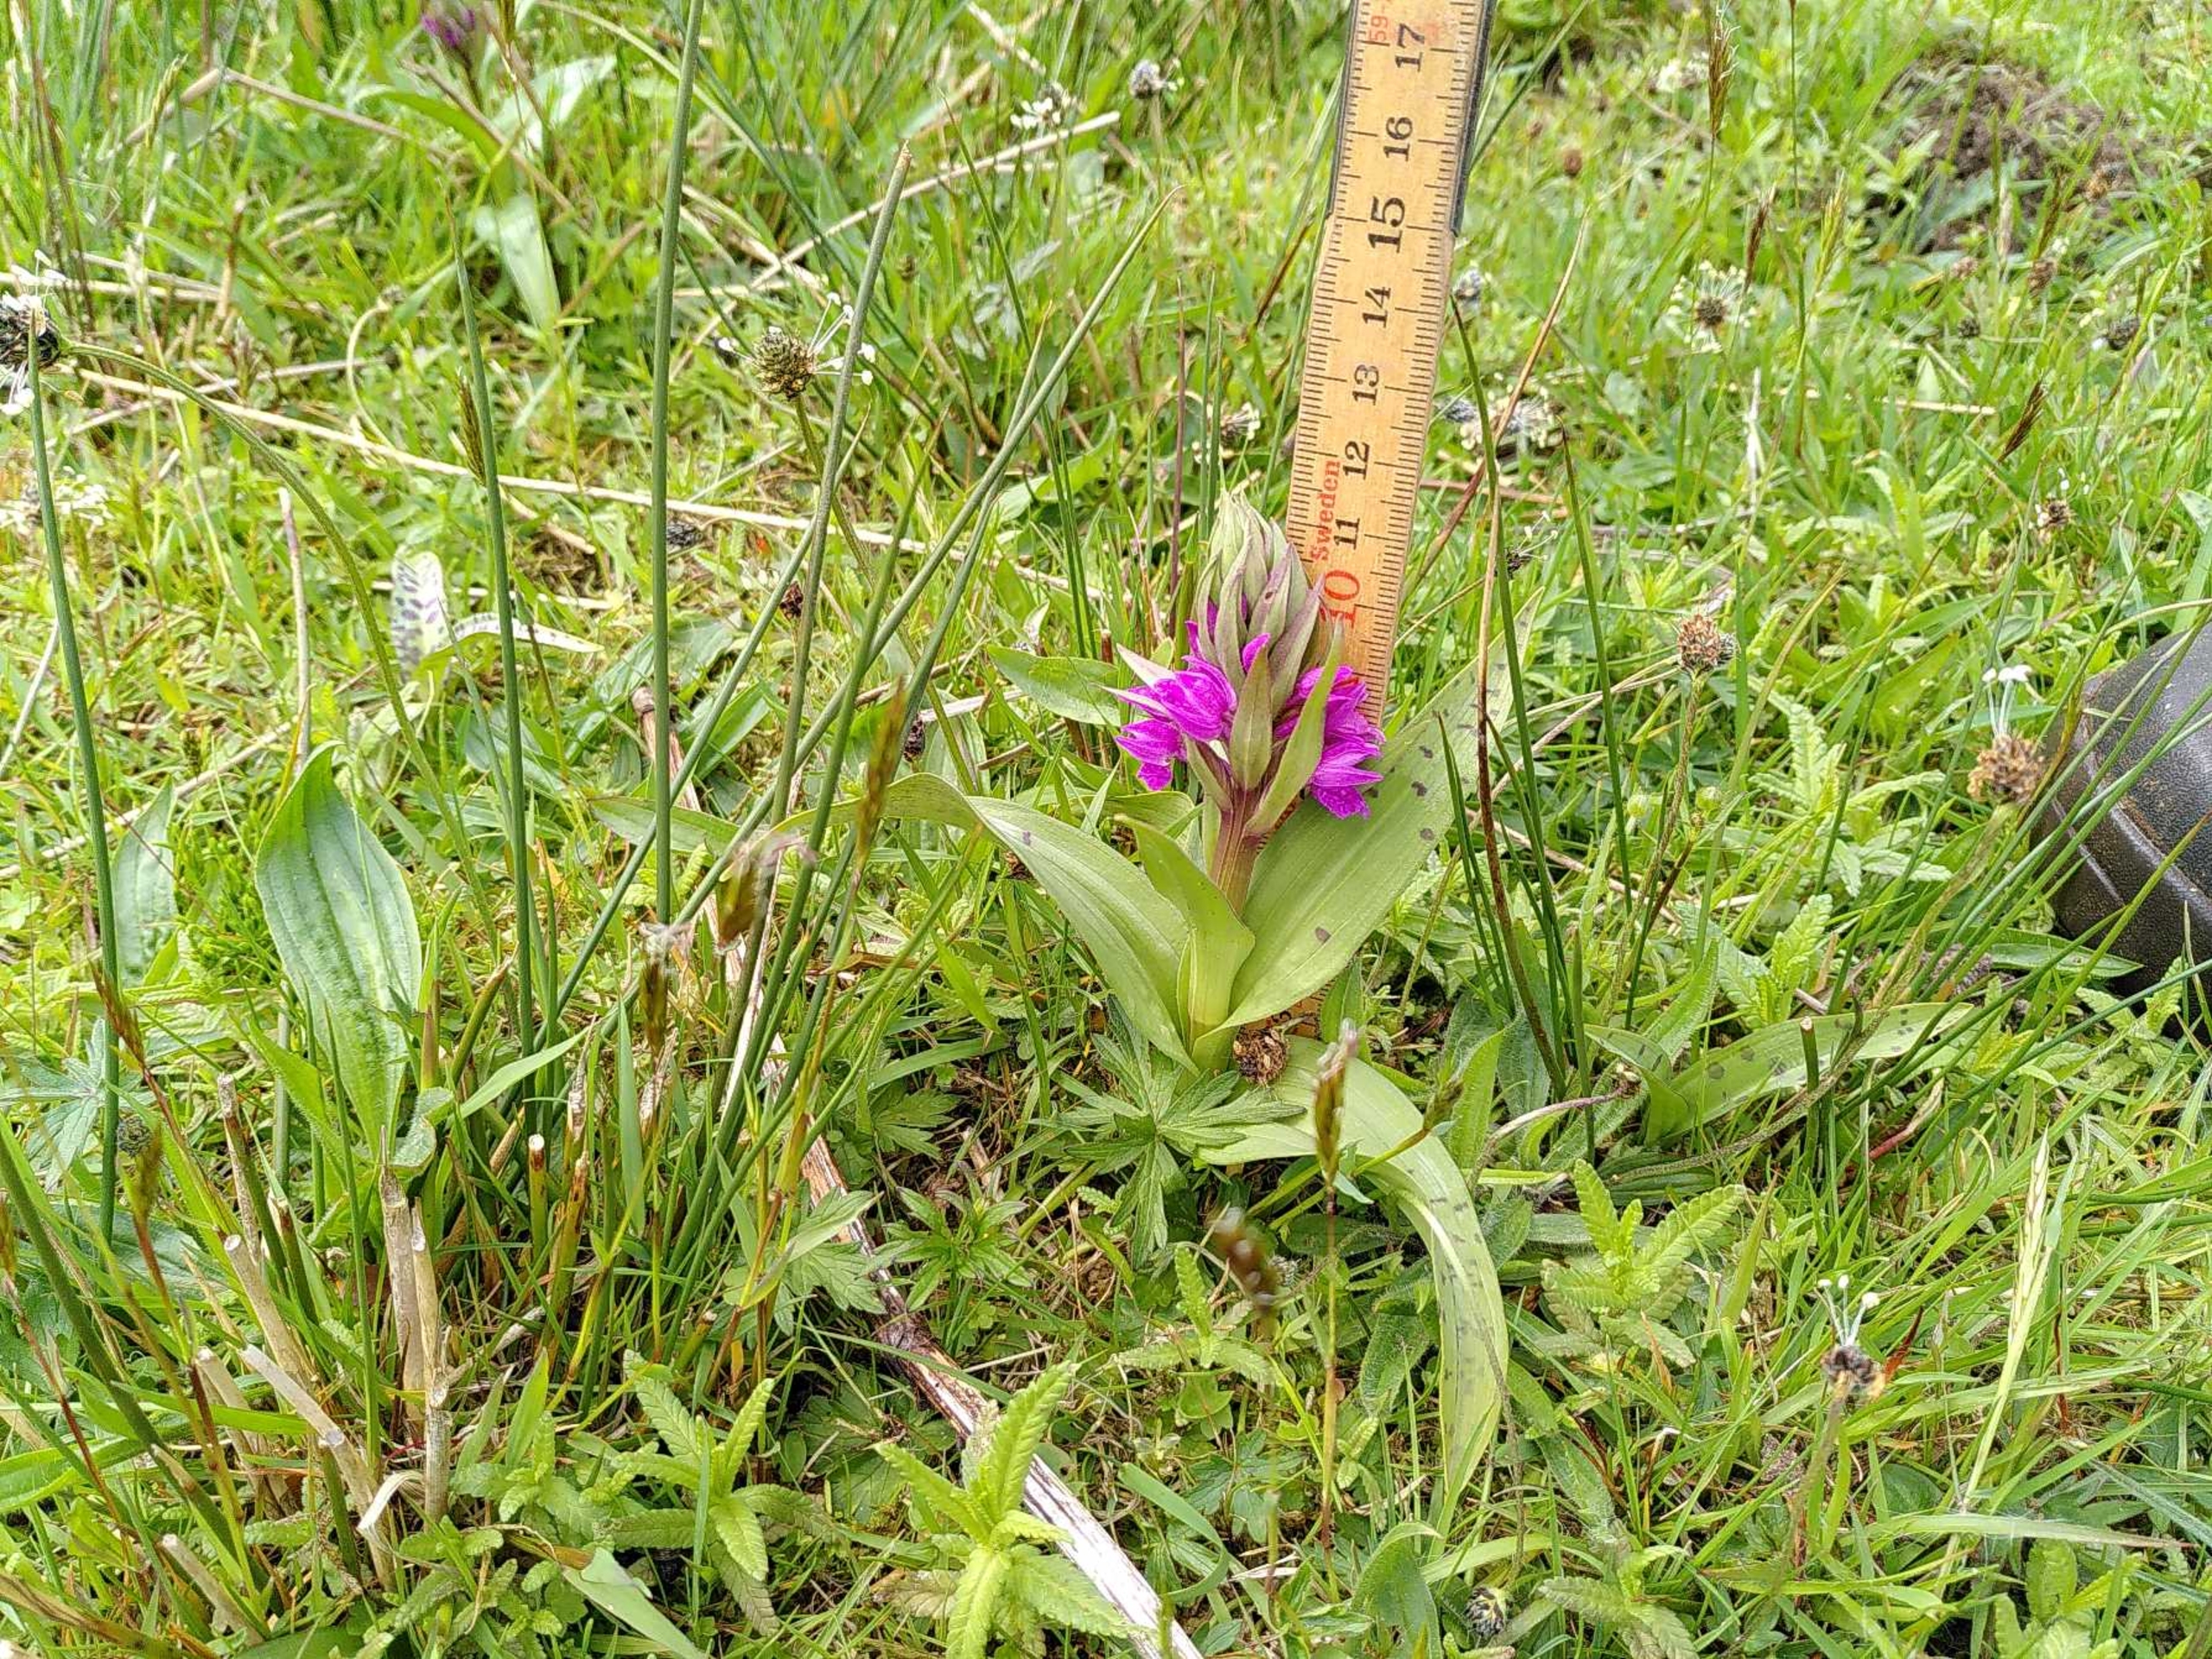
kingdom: Plantae
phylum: Tracheophyta
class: Liliopsida
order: Asparagales
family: Orchidaceae
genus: Dactylorhiza
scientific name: Dactylorhiza majalis
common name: Maj-gøgeurt
